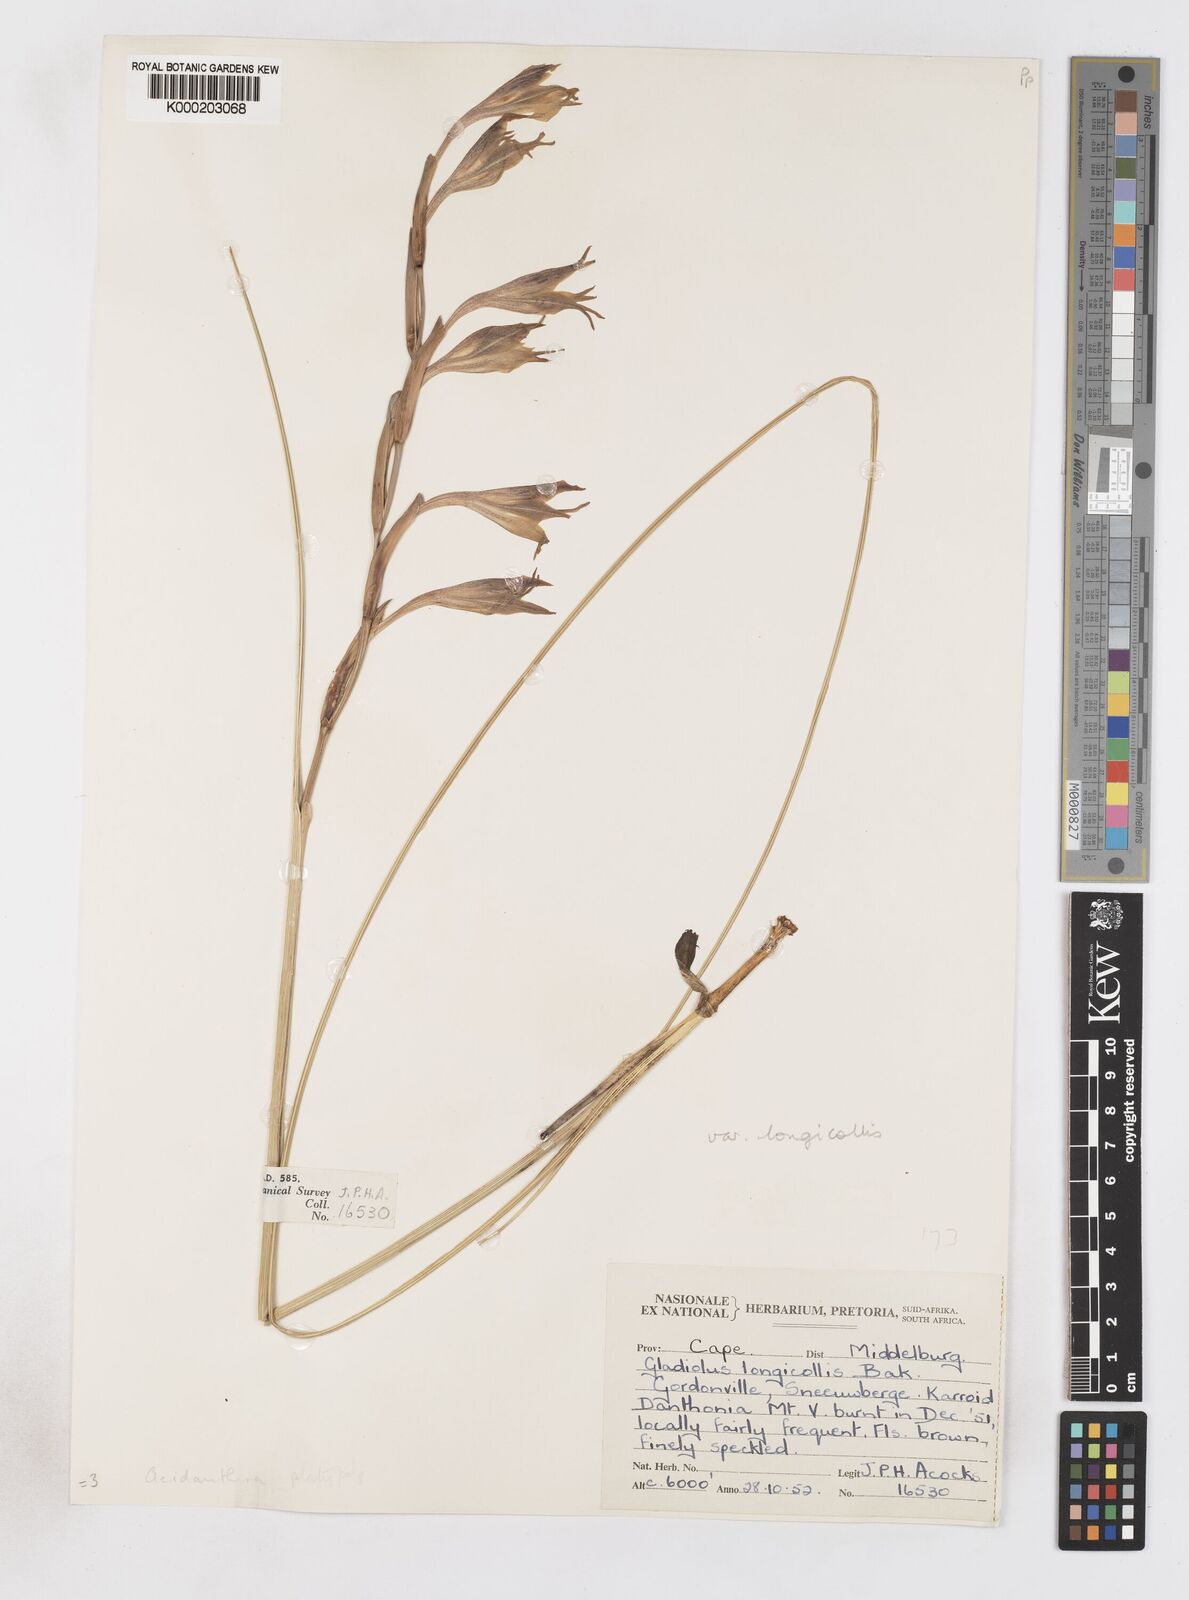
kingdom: Plantae
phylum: Tracheophyta
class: Liliopsida
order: Asparagales
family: Iridaceae
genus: Gladiolus
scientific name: Gladiolus longicollis
